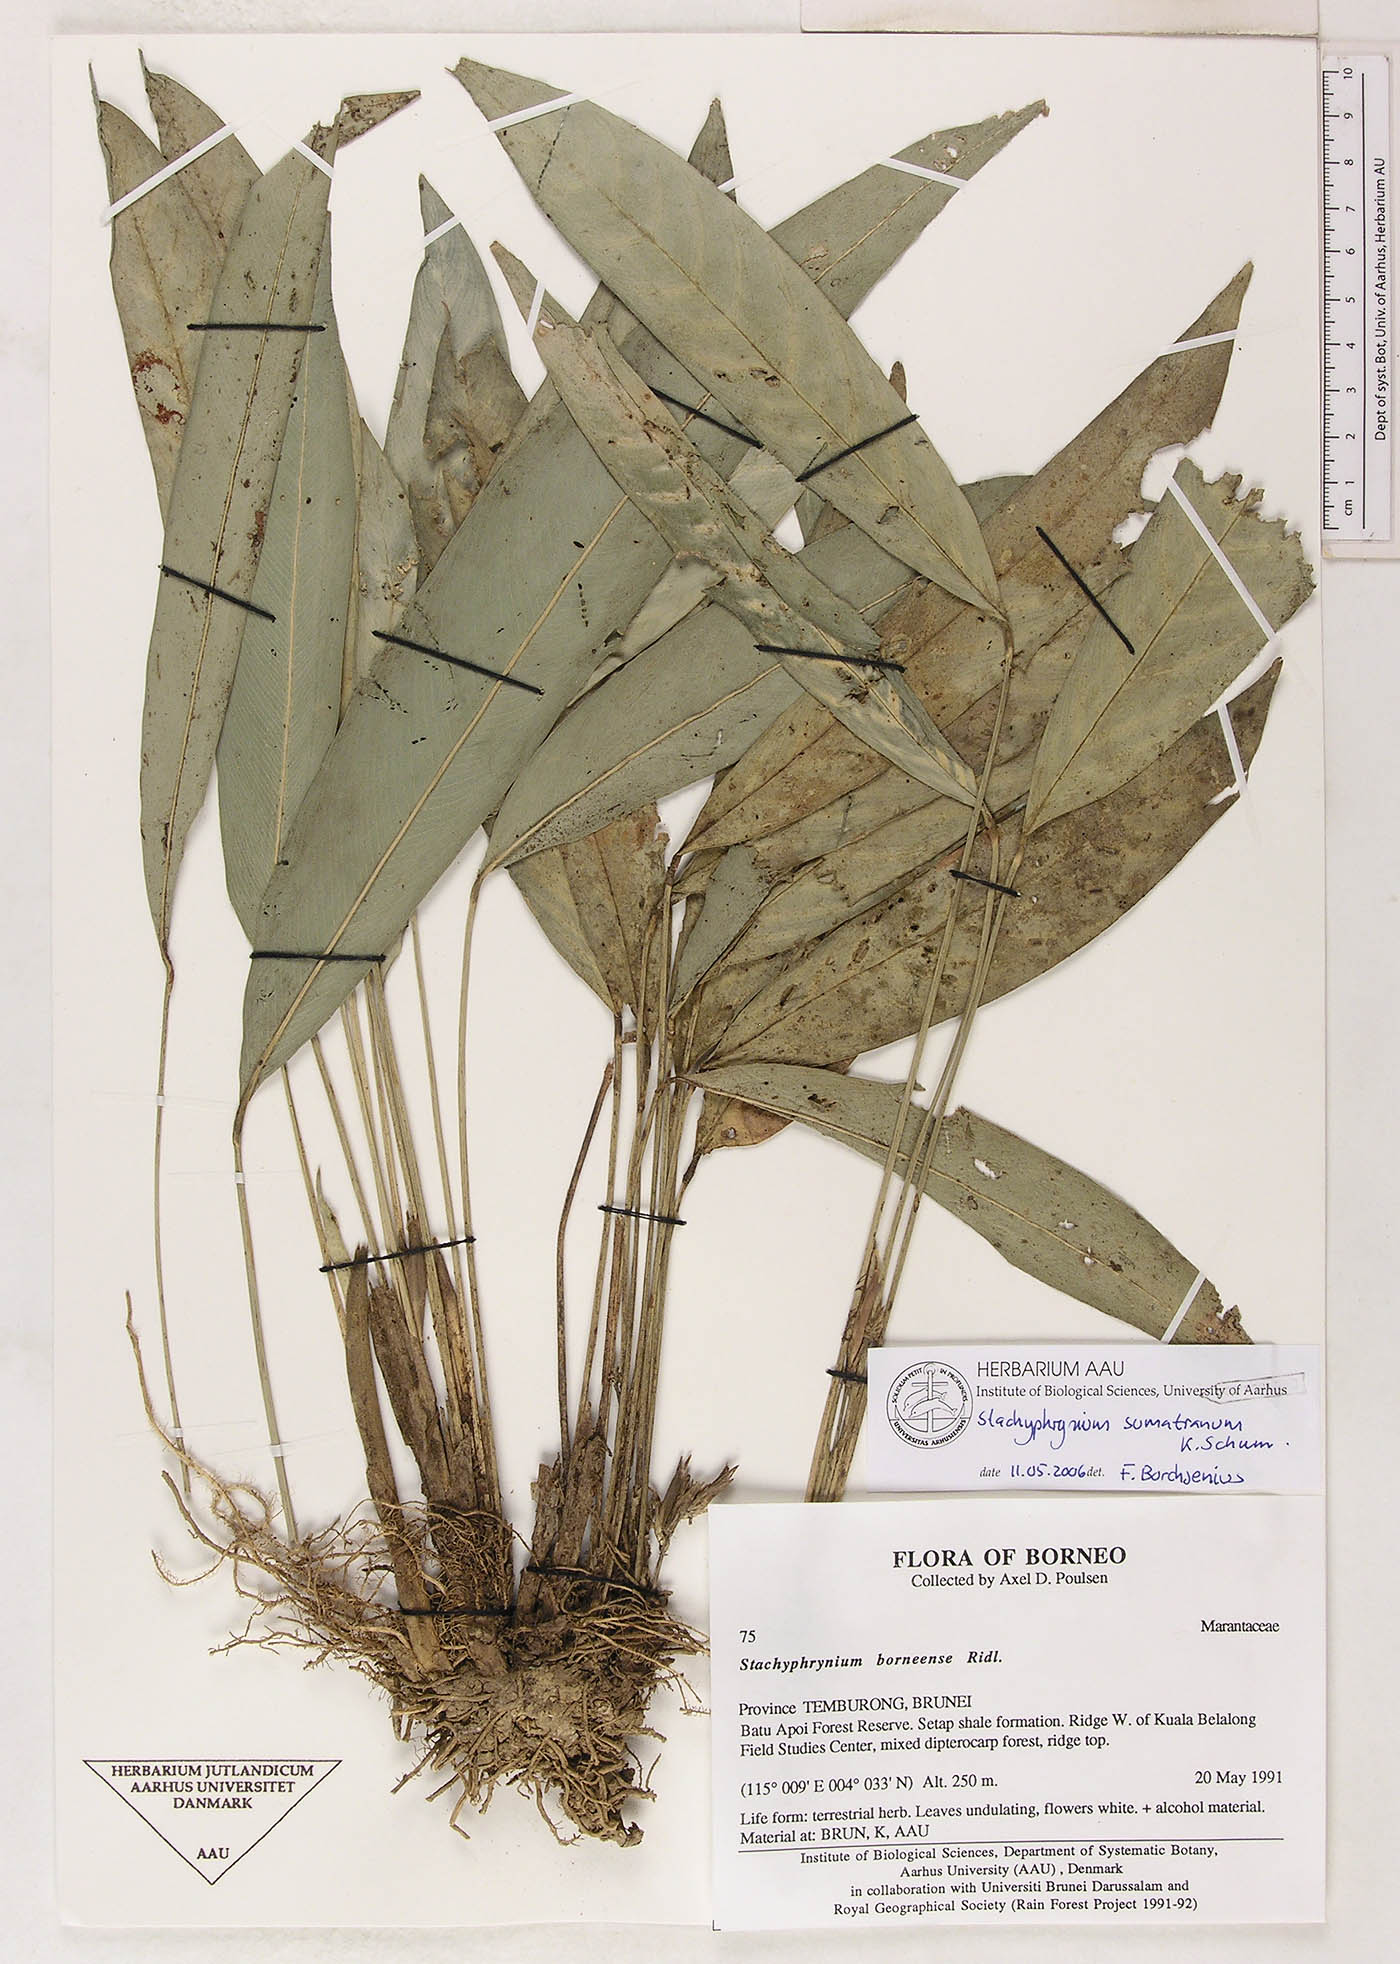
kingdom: Plantae
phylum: Tracheophyta
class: Liliopsida
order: Zingiberales
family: Marantaceae
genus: Stachyphrynium
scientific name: Stachyphrynium sumatranum
